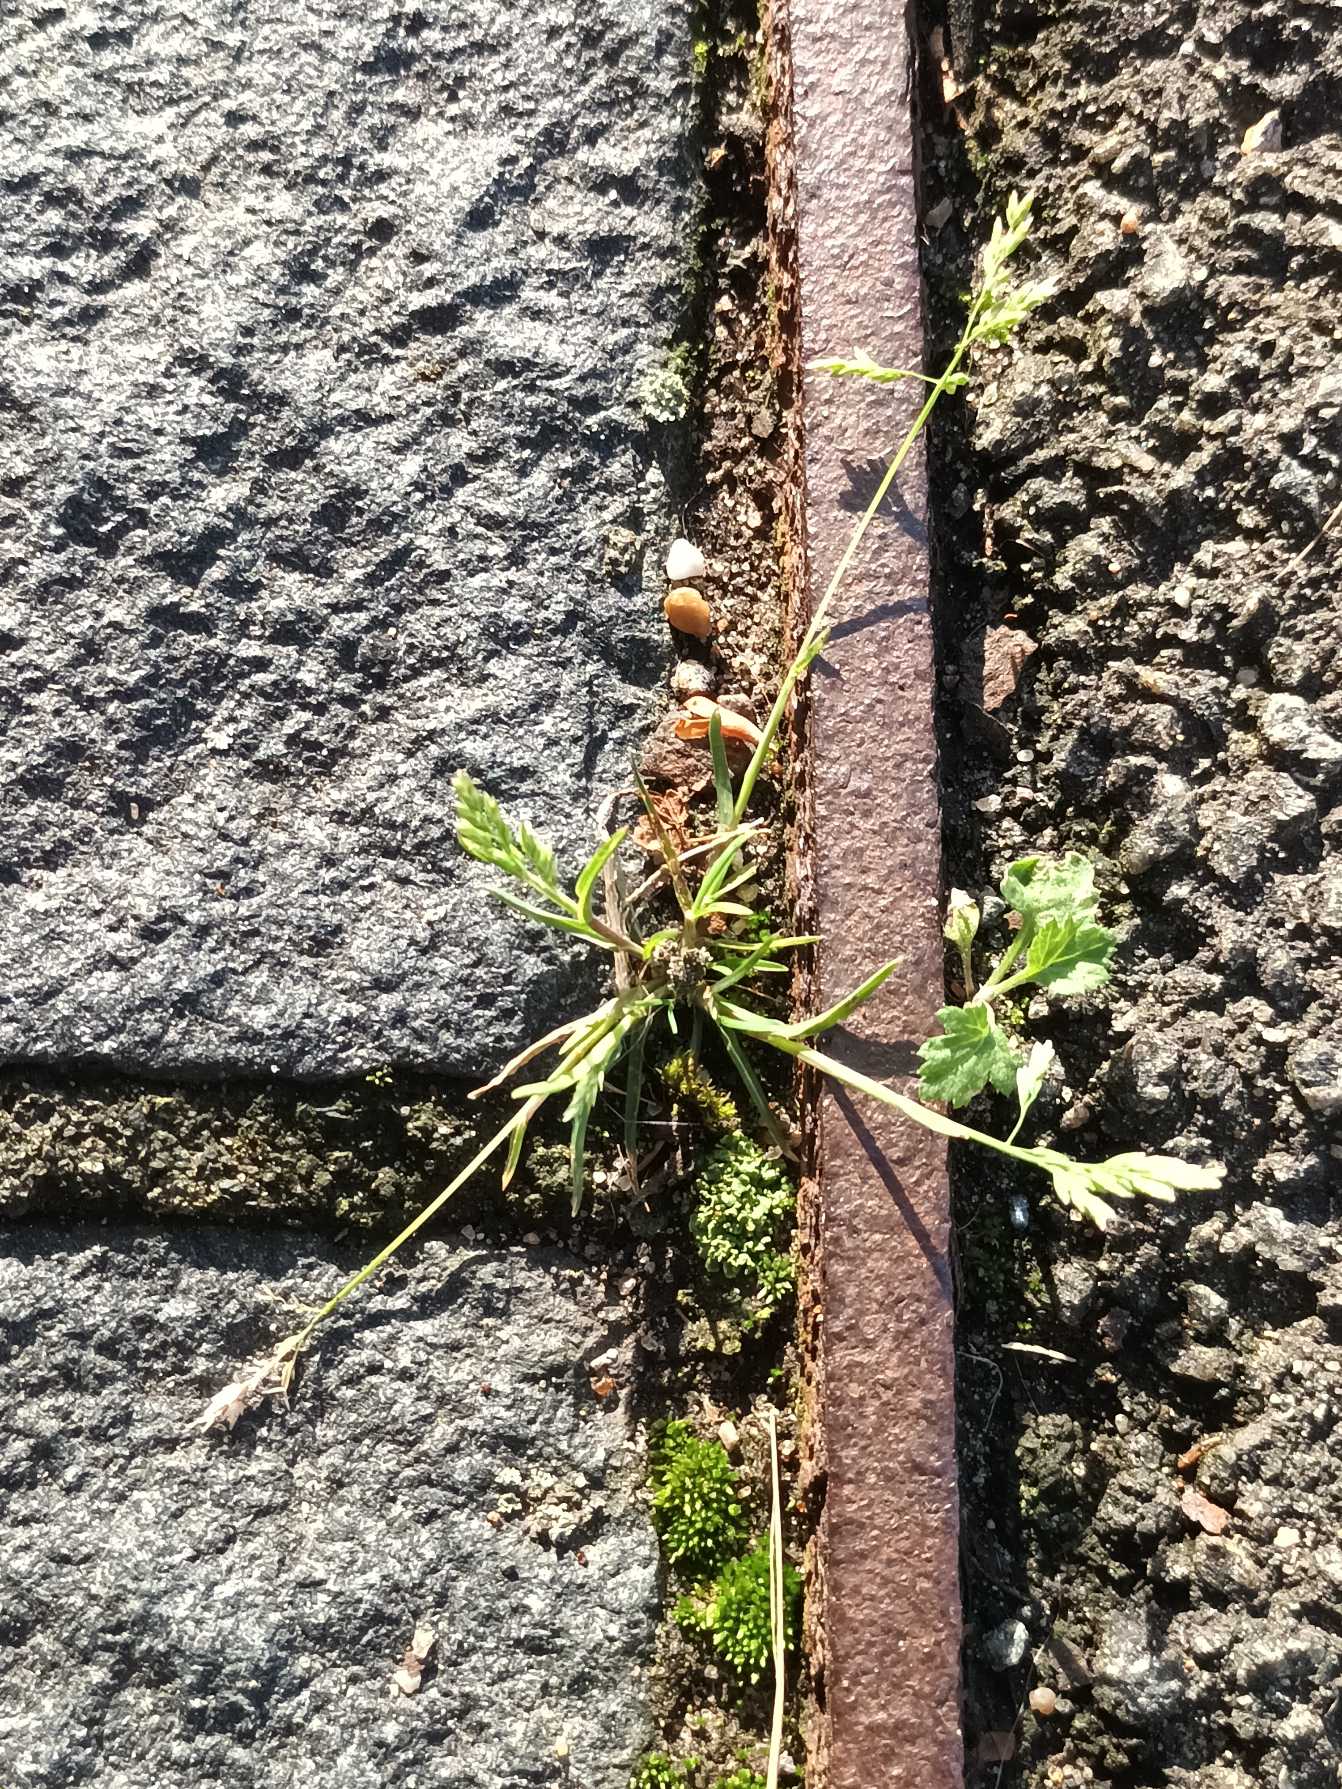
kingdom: Plantae
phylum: Tracheophyta
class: Liliopsida
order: Poales
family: Poaceae
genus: Poa
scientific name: Poa annua
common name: Enårig rapgræs
